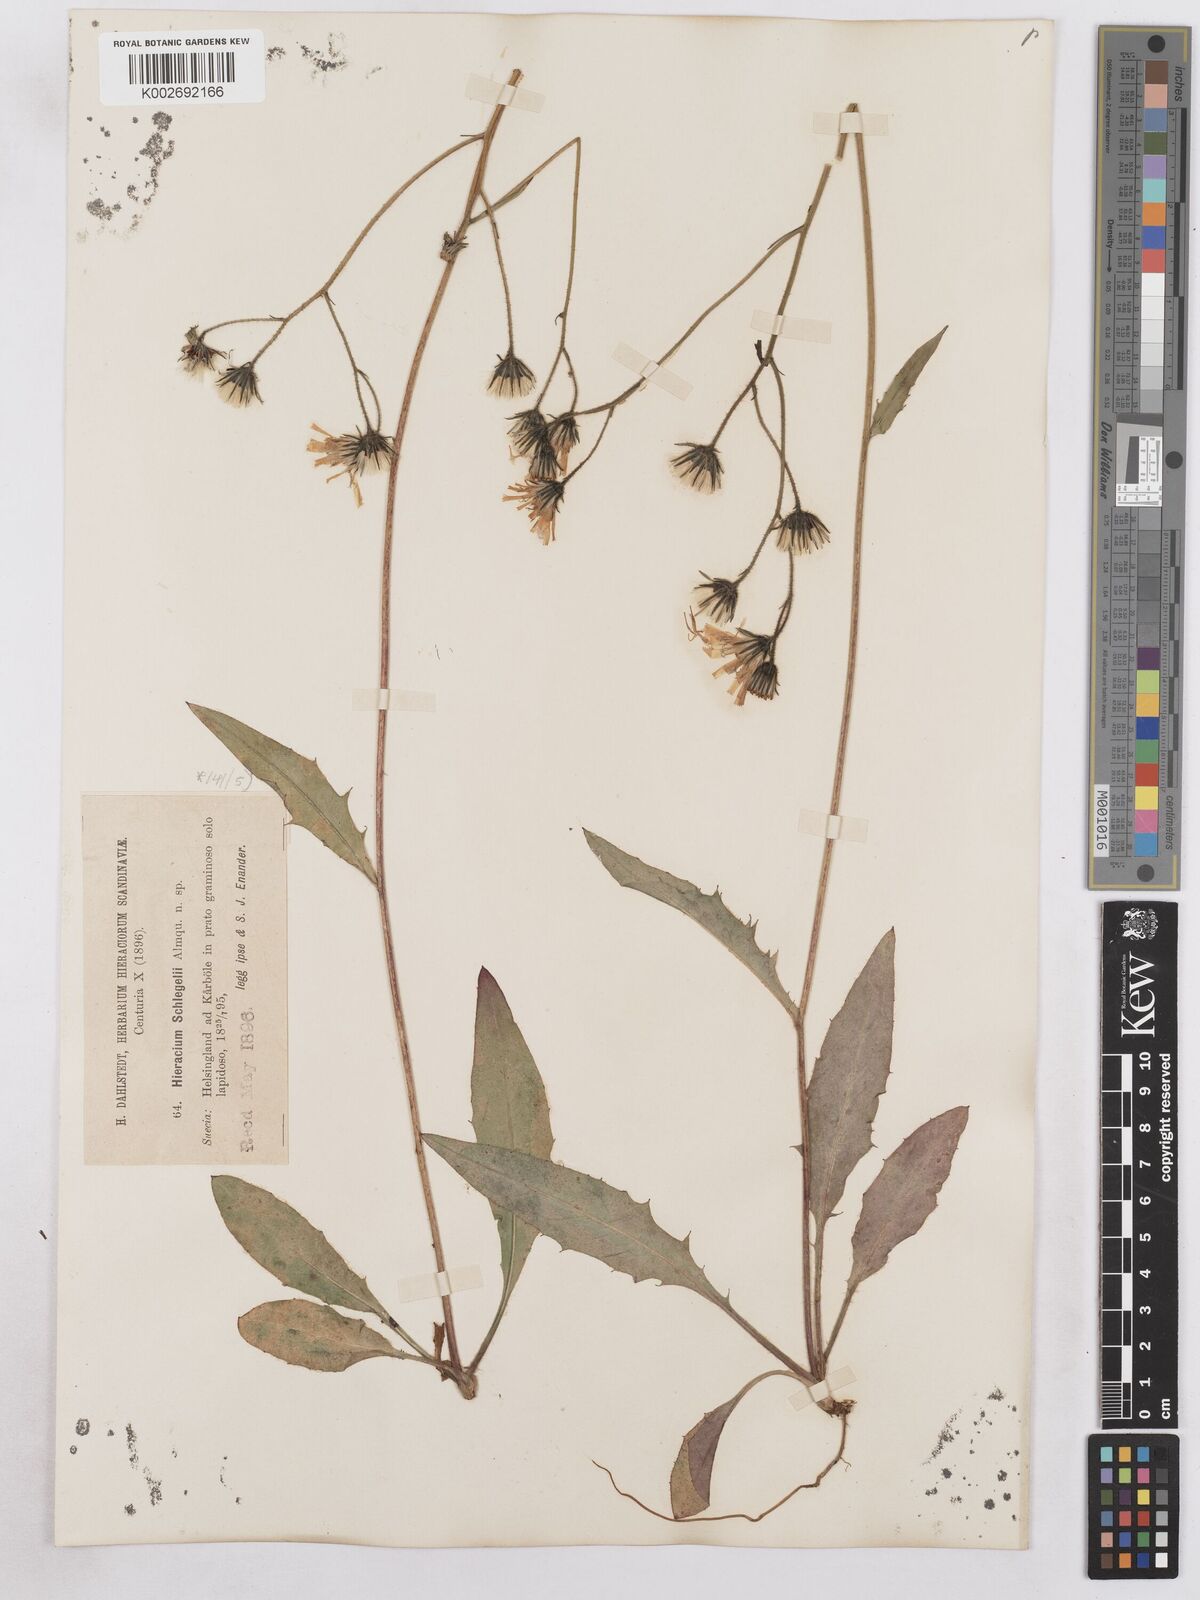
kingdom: Plantae
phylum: Tracheophyta
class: Magnoliopsida
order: Asterales
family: Asteraceae
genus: Hieracium
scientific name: Hieracium diaphanoides
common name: Fine-bracted hawkweed
